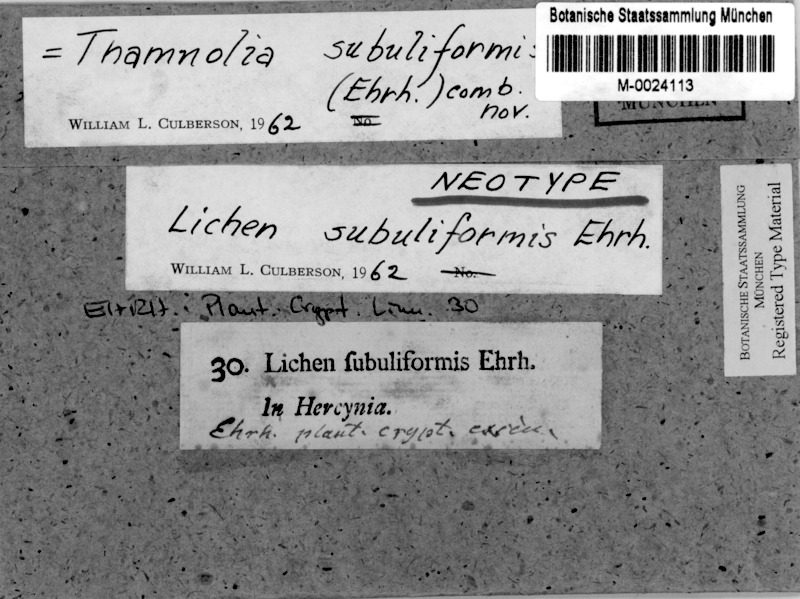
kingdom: Fungi
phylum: Ascomycota
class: Lecanoromycetes
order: Pertusariales
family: Icmadophilaceae
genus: Thamnolia
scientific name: Thamnolia subuliformis
